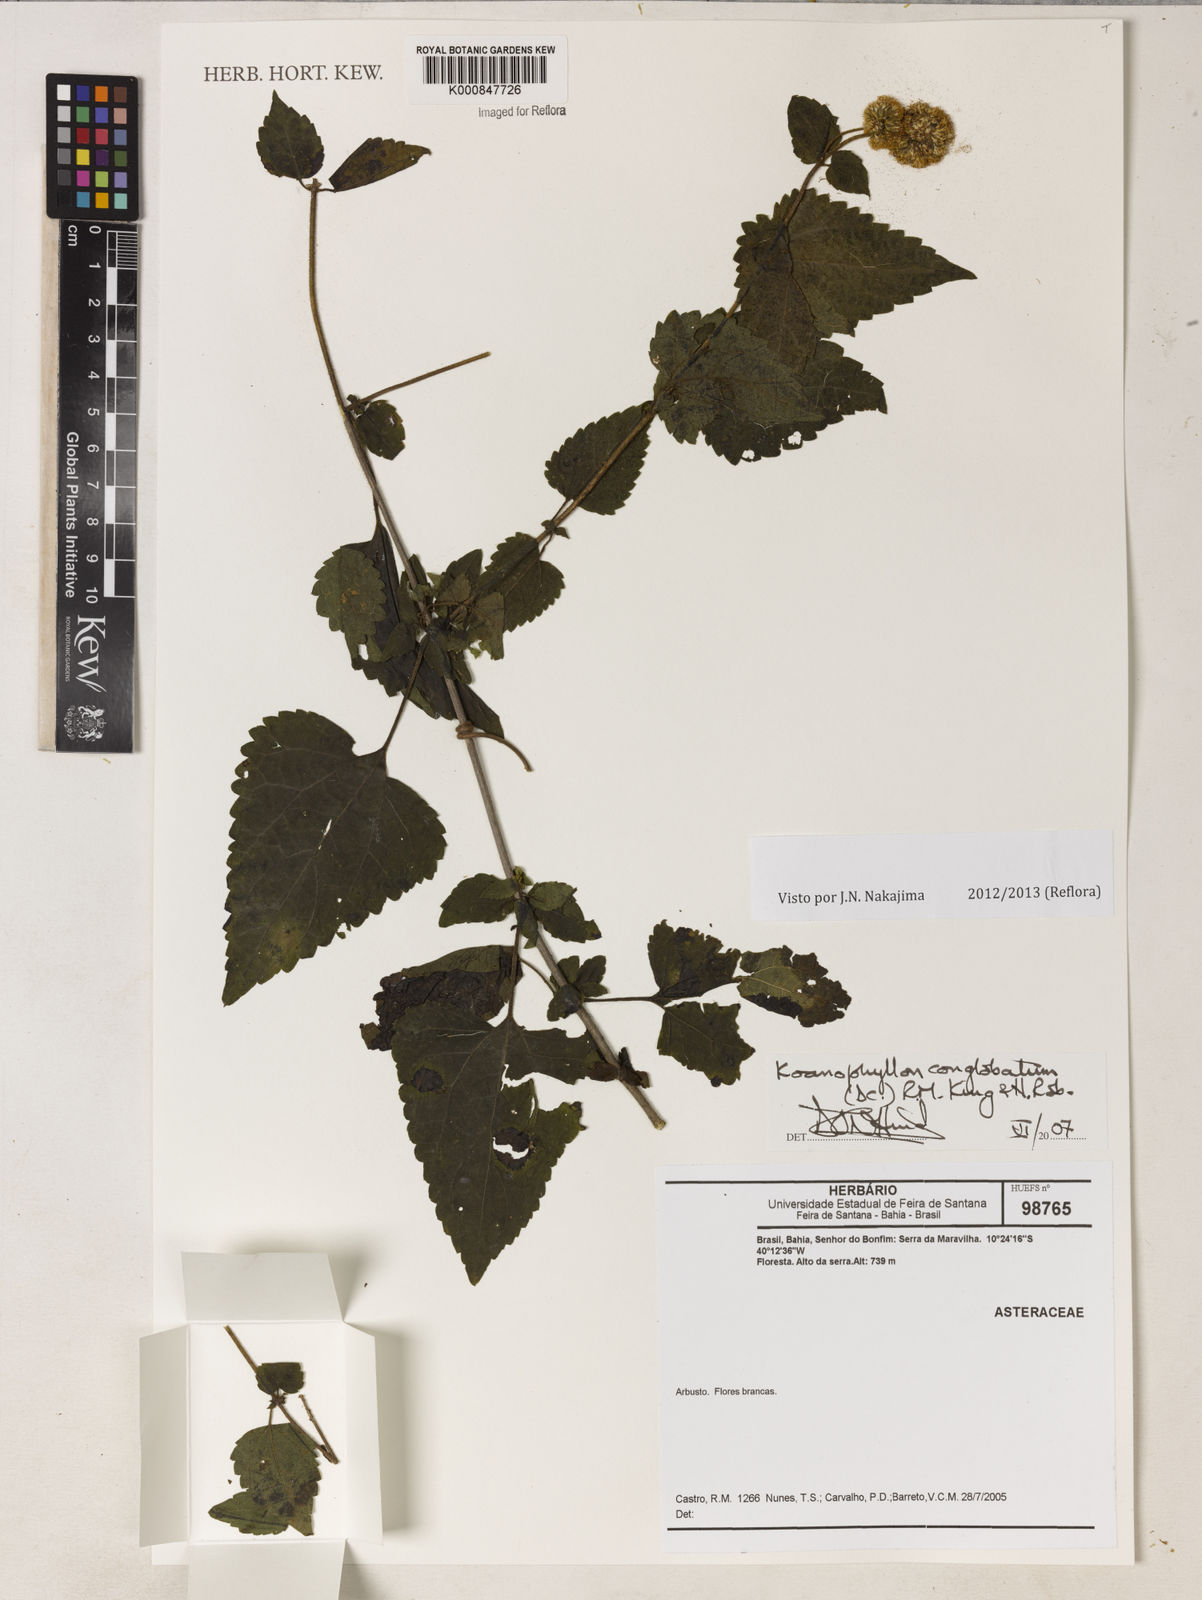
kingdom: Plantae
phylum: Tracheophyta
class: Magnoliopsida
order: Asterales
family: Asteraceae
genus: Koanophyllon
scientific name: Koanophyllon conglobatum
